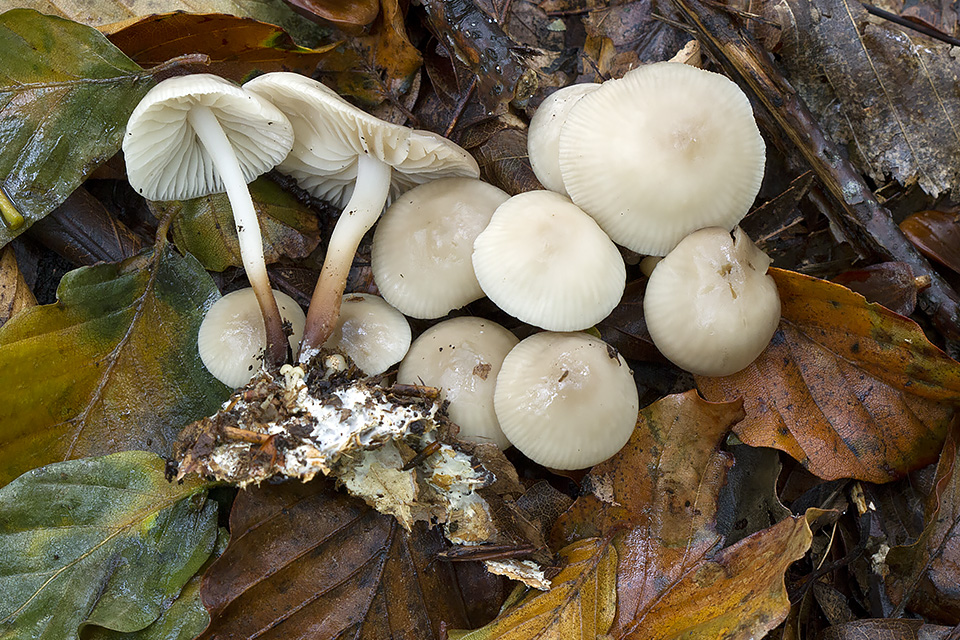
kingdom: Fungi
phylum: Basidiomycota
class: Agaricomycetes
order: Agaricales
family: Marasmiaceae
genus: Marasmius
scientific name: Marasmius wynneae
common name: hvælvet bruskhat
